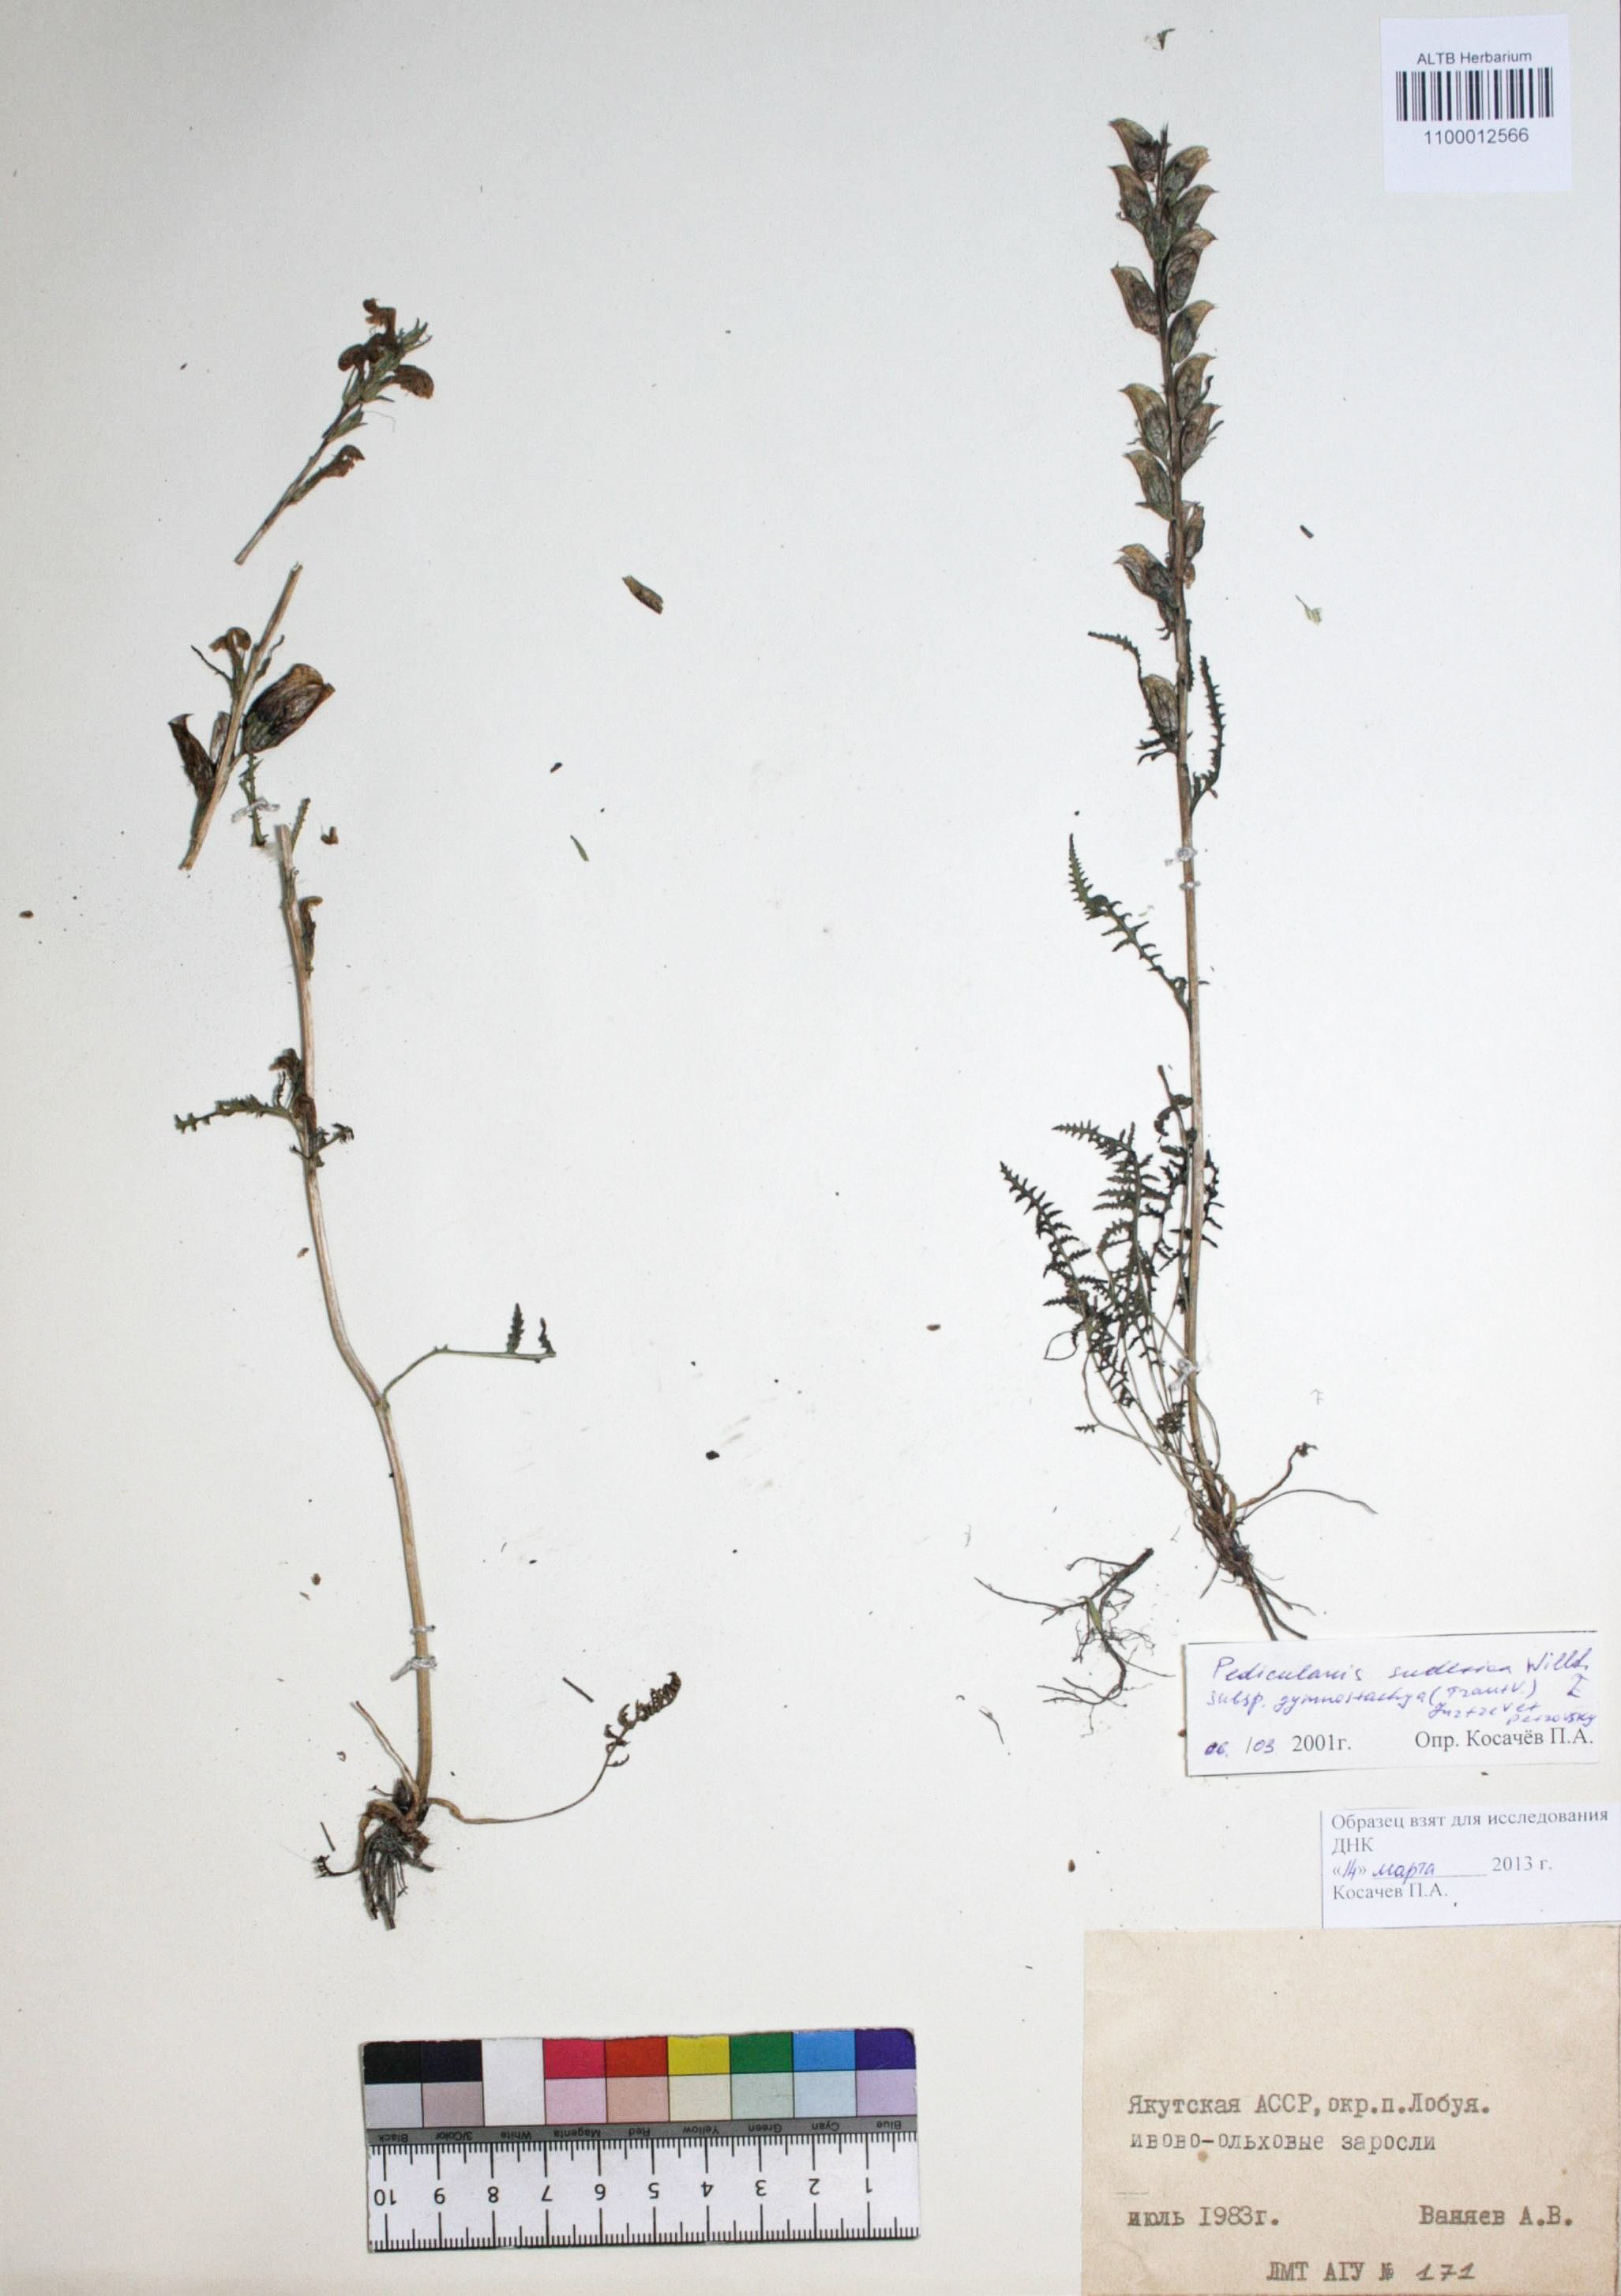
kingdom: Plantae
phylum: Tracheophyta
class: Magnoliopsida
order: Lamiales
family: Orobanchaceae
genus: Pedicularis
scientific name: Pedicularis gymnostachya
